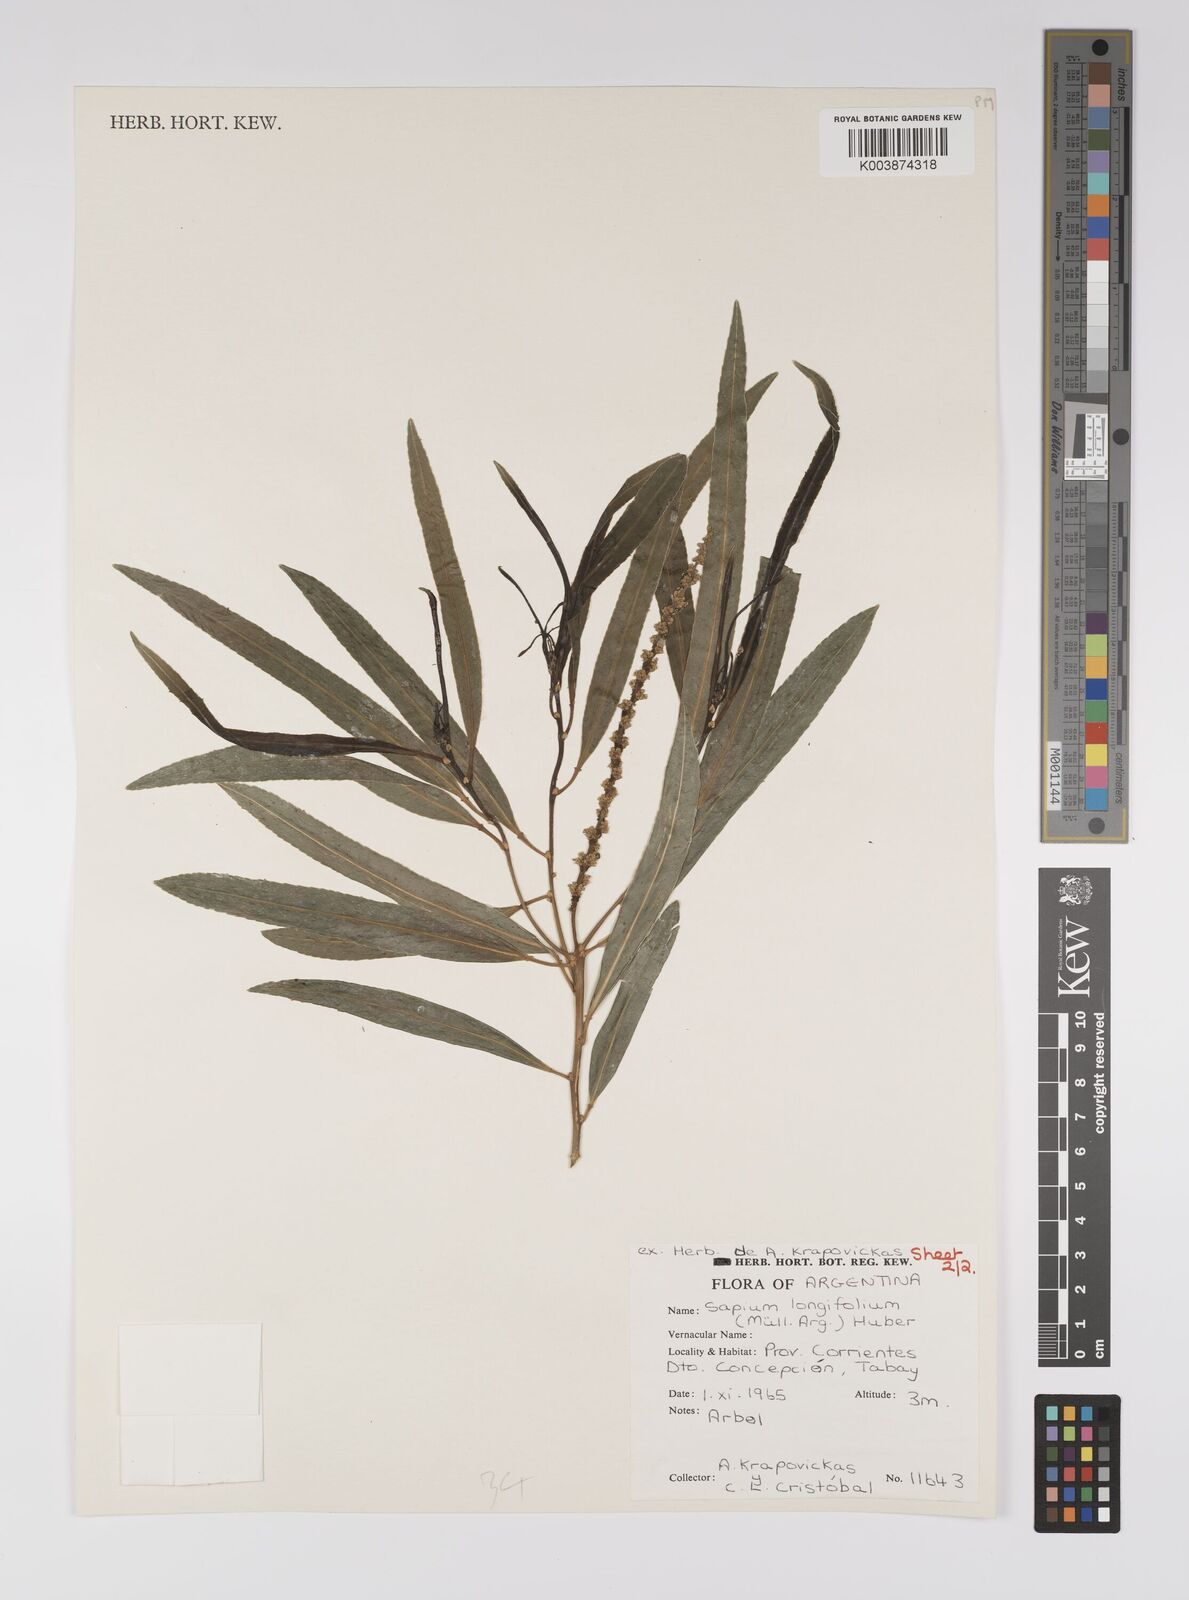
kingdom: Plantae
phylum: Tracheophyta
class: Magnoliopsida
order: Malpighiales
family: Euphorbiaceae
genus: Sapium
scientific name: Sapium haematospermum
